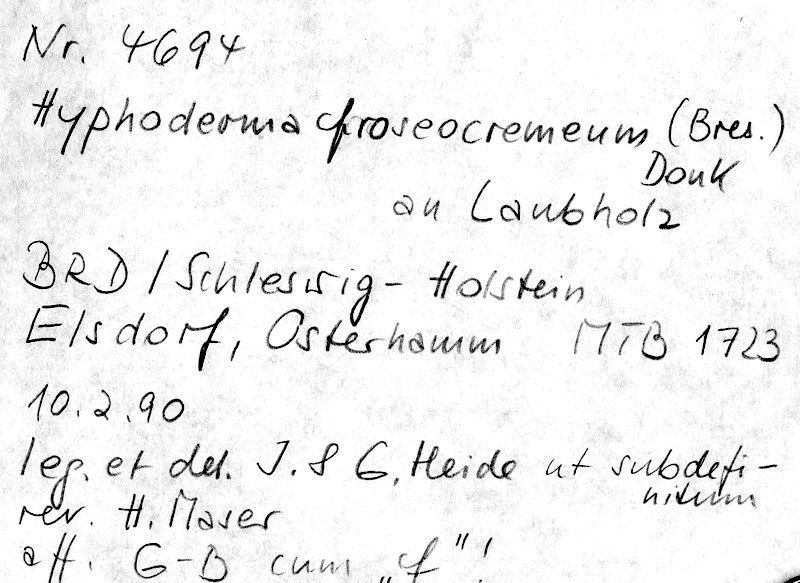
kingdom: Fungi
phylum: Basidiomycota
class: Agaricomycetes
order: Polyporales
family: Hyphodermataceae
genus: Hyphoderma
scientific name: Hyphoderma roseocremeum
